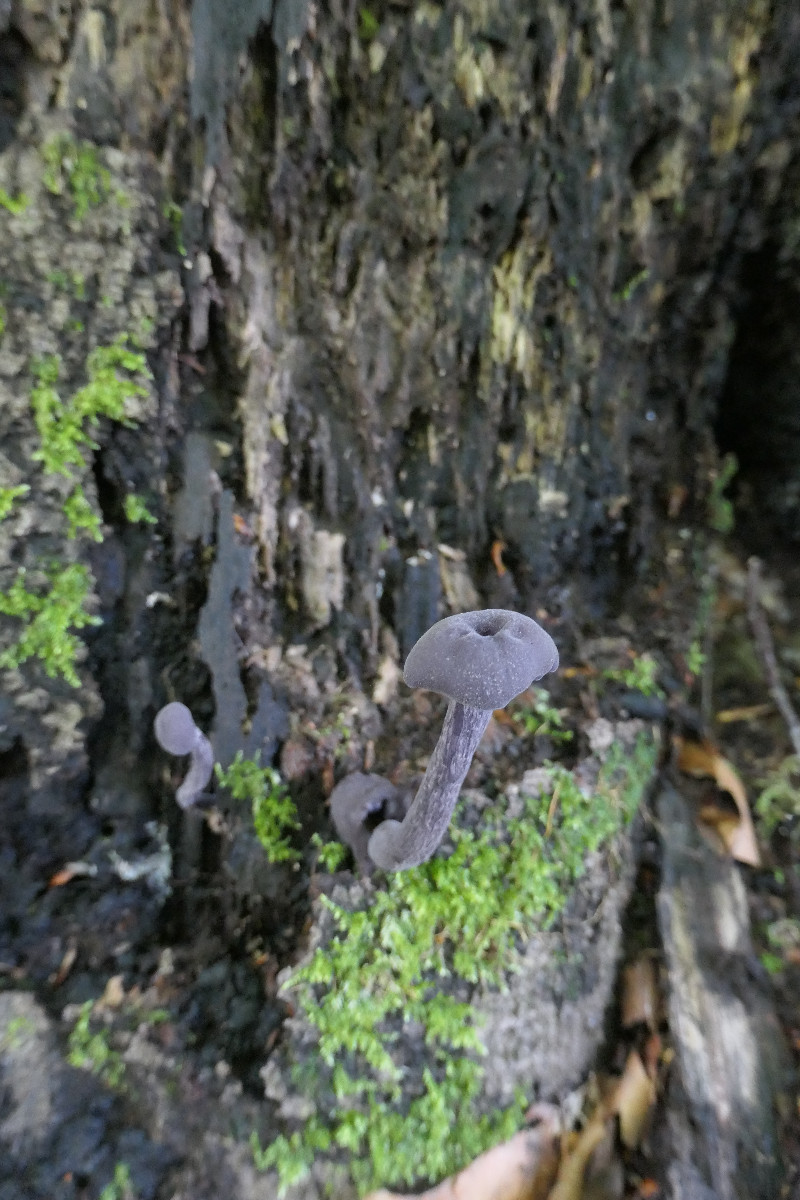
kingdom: Fungi
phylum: Basidiomycota
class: Agaricomycetes
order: Agaricales
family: Hydnangiaceae
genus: Laccaria
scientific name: Laccaria amethystina
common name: violet ametysthat
